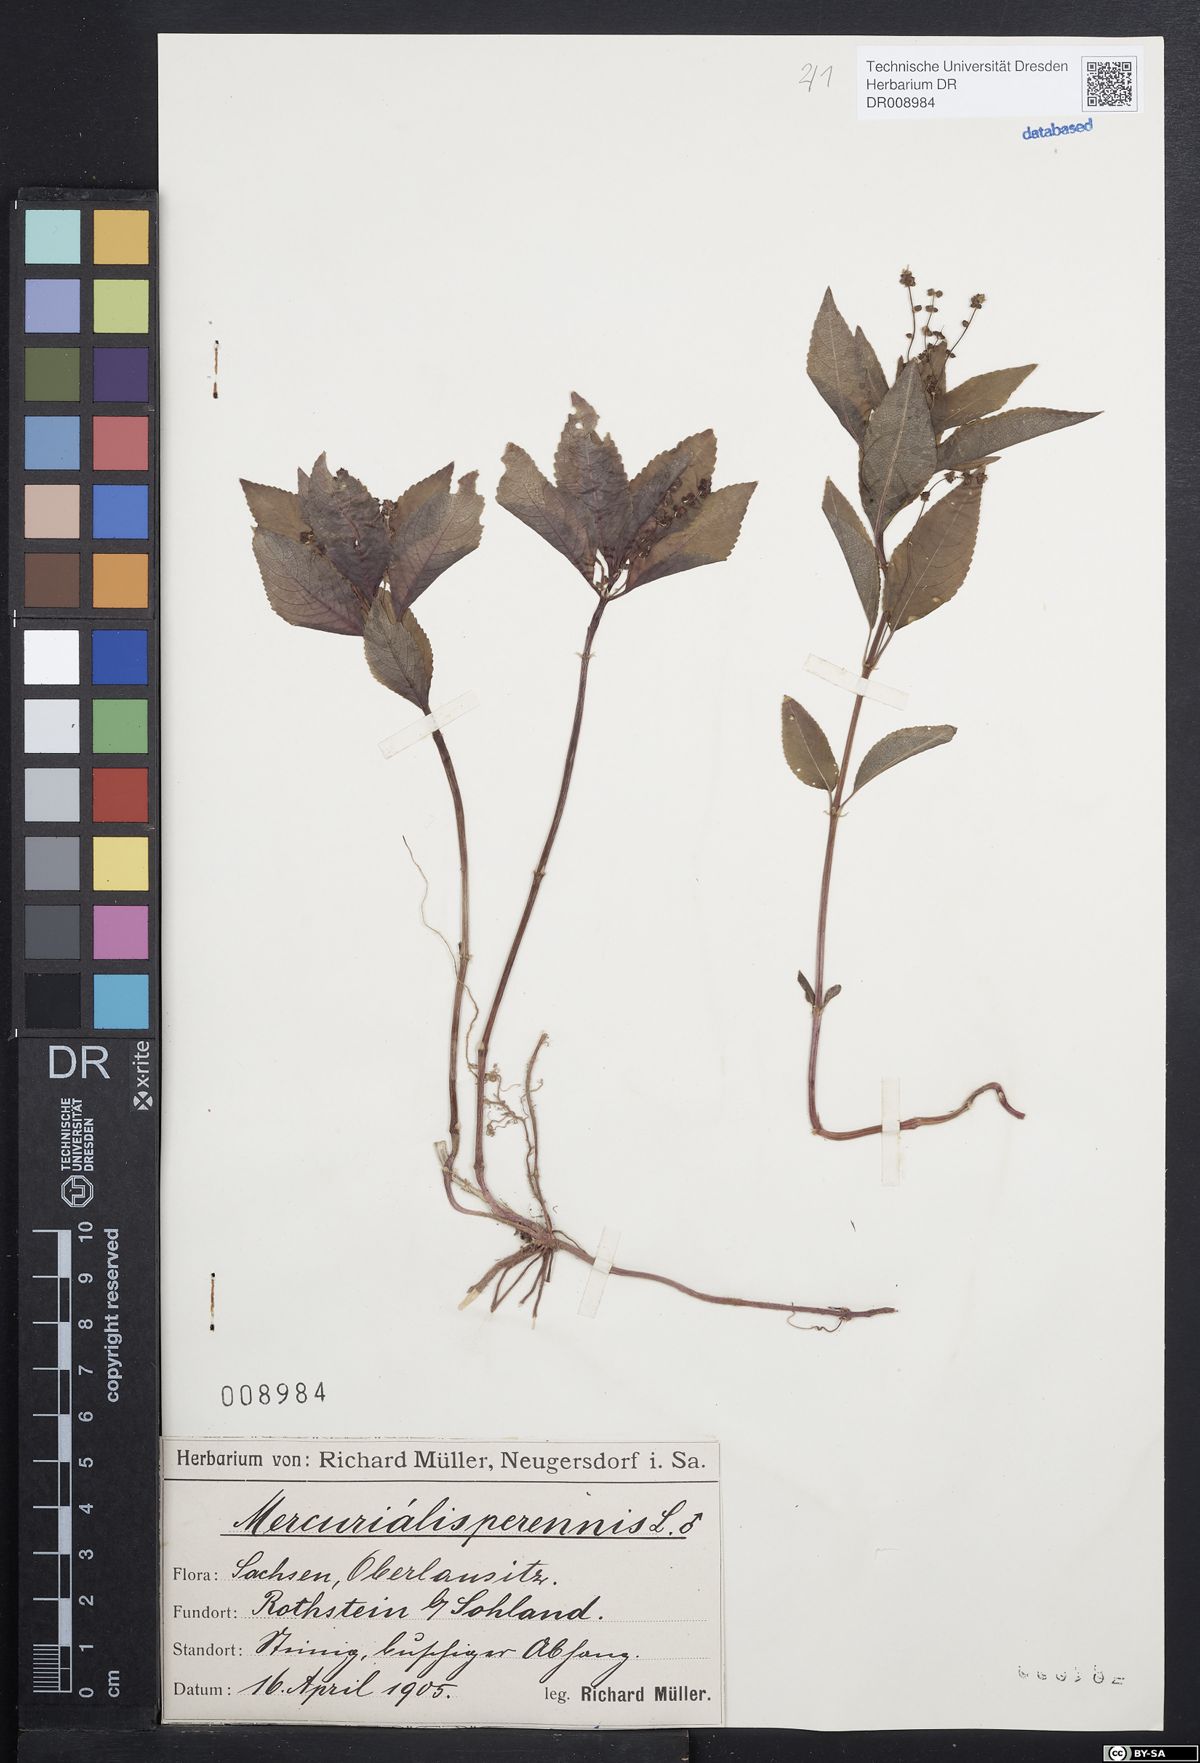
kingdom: Plantae
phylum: Tracheophyta
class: Magnoliopsida
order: Malpighiales
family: Euphorbiaceae
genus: Mercurialis
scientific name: Mercurialis perennis
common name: Dog mercury
